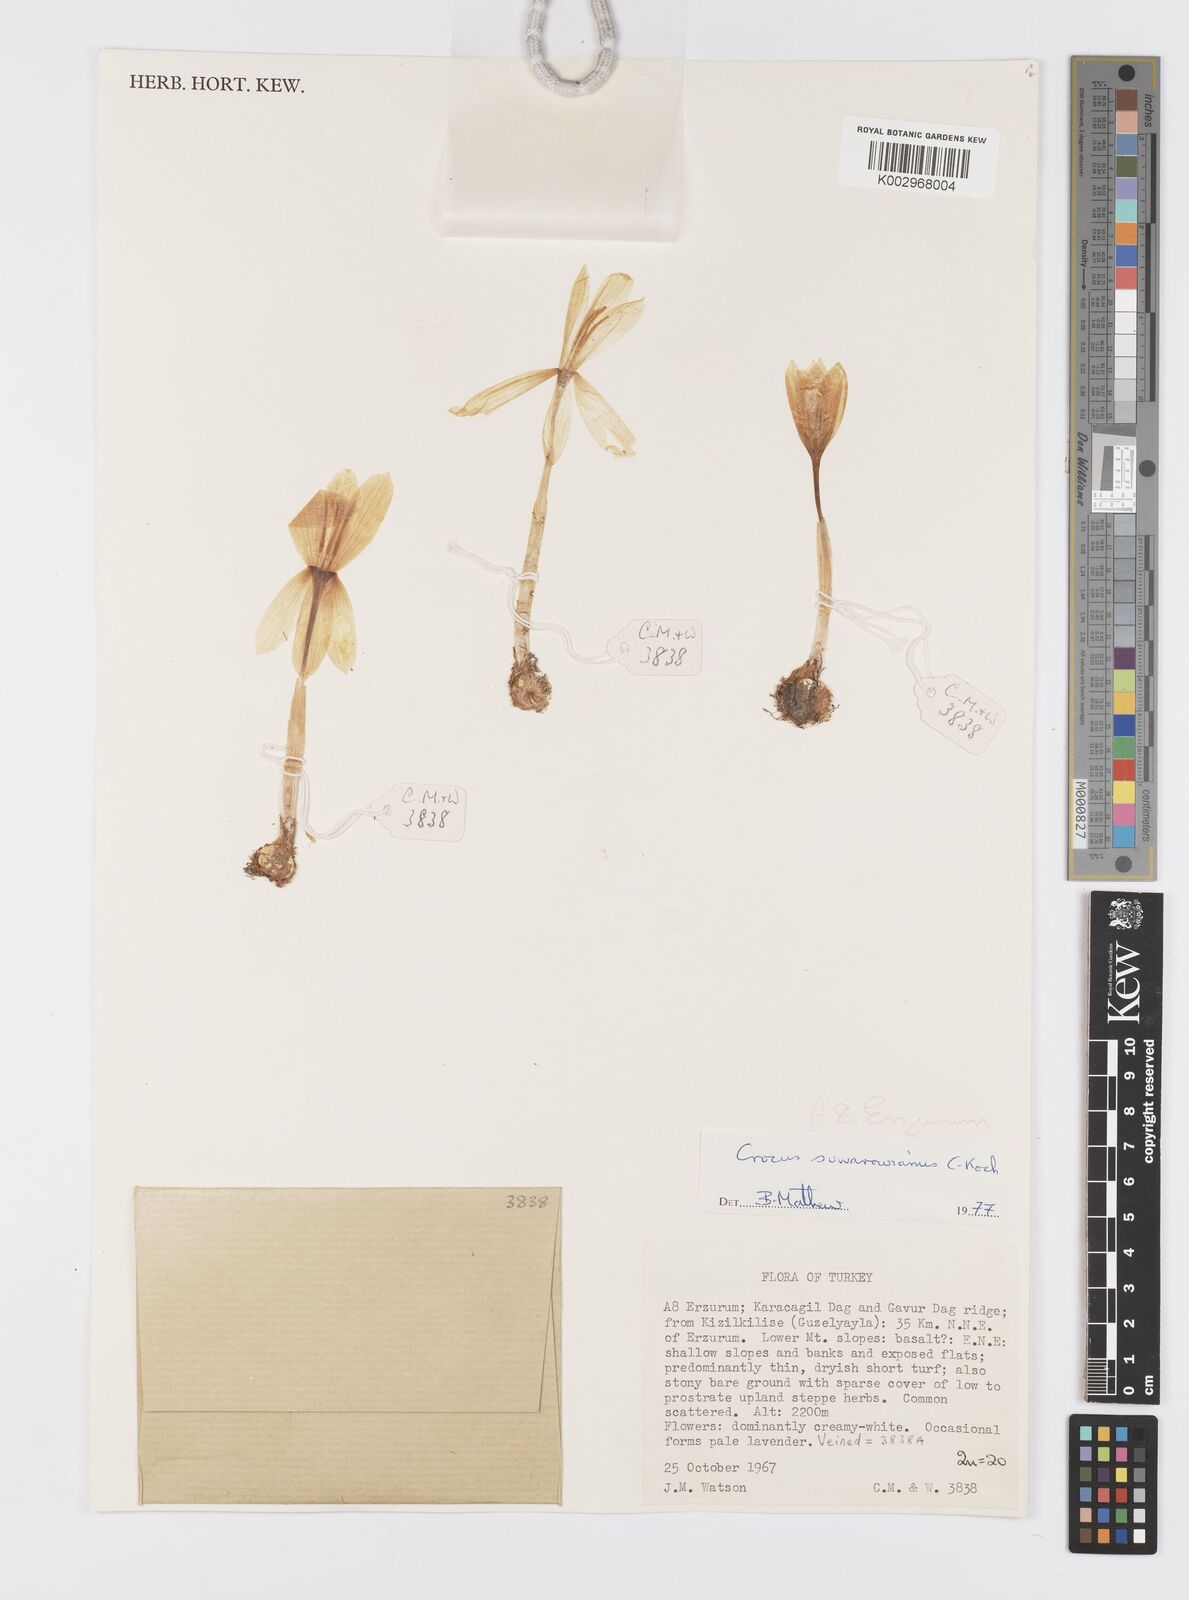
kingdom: Plantae
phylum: Tracheophyta
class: Liliopsida
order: Asparagales
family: Iridaceae
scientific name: Iridaceae
